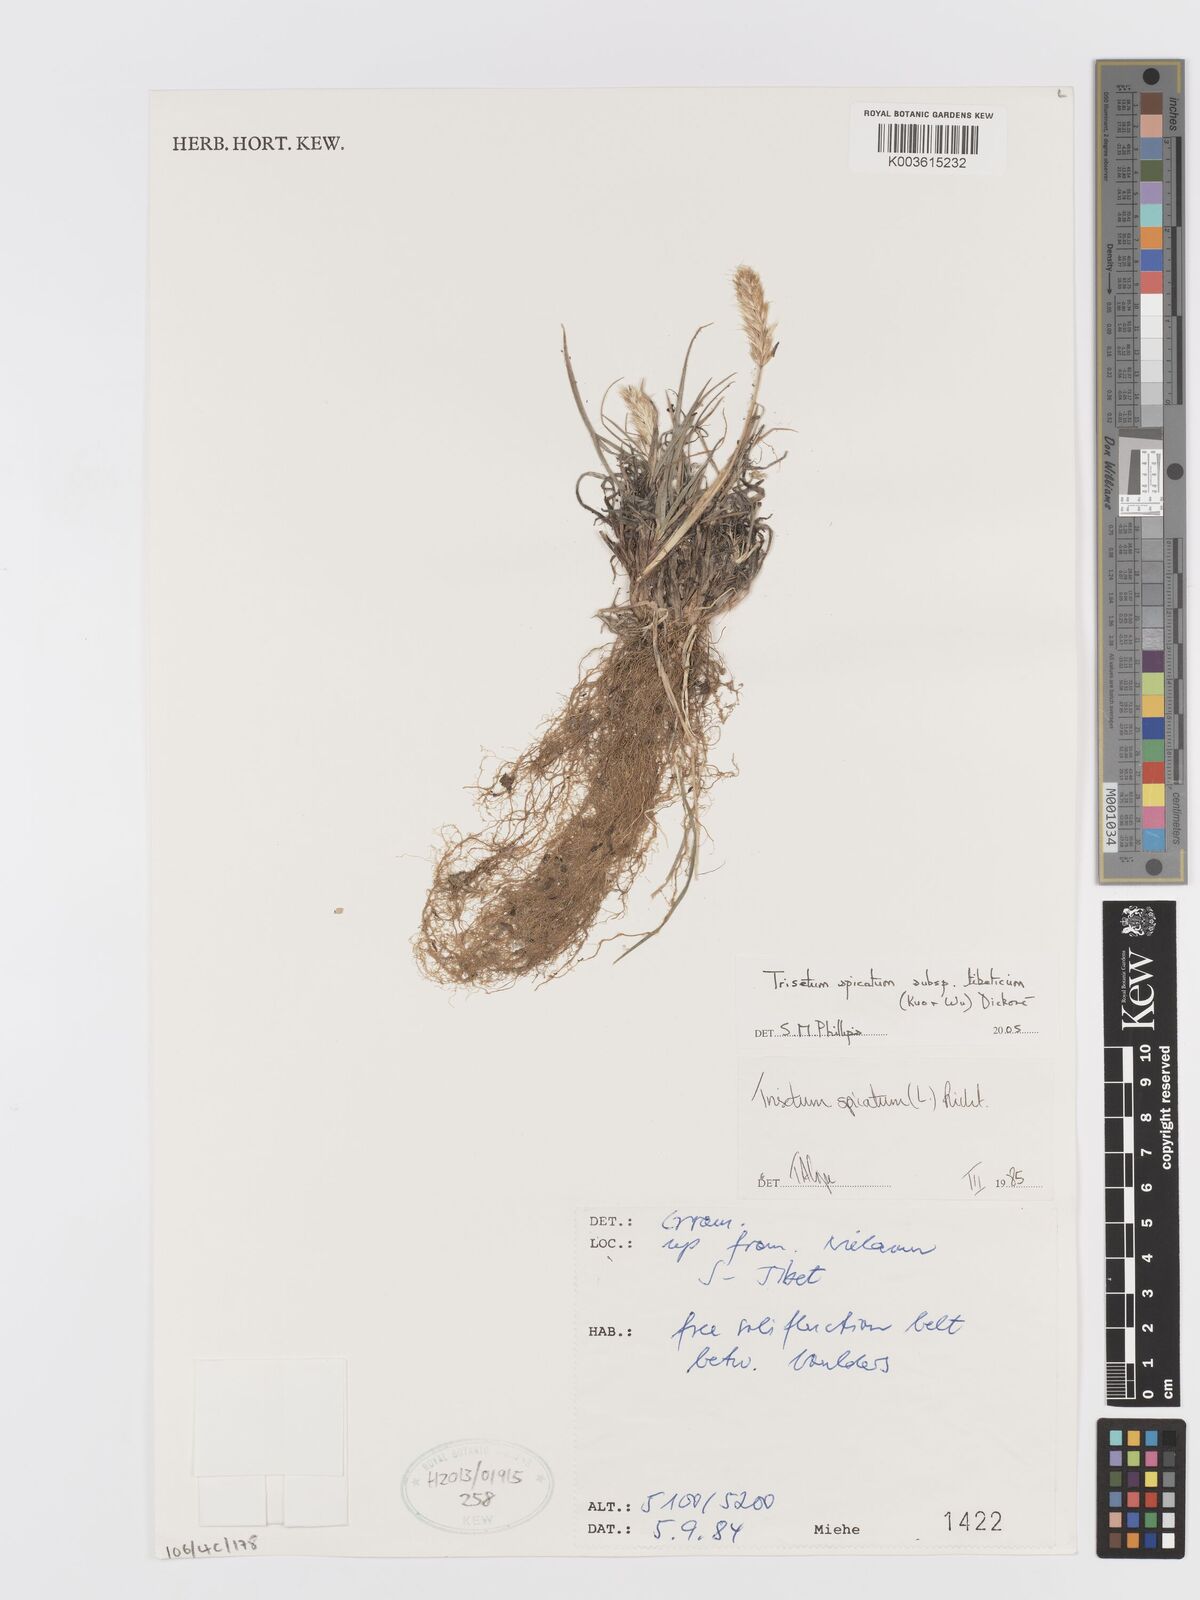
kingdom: Plantae
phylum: Tracheophyta
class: Liliopsida
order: Poales
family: Poaceae
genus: Koeleria
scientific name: Koeleria spicata
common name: Mountain trisetum
